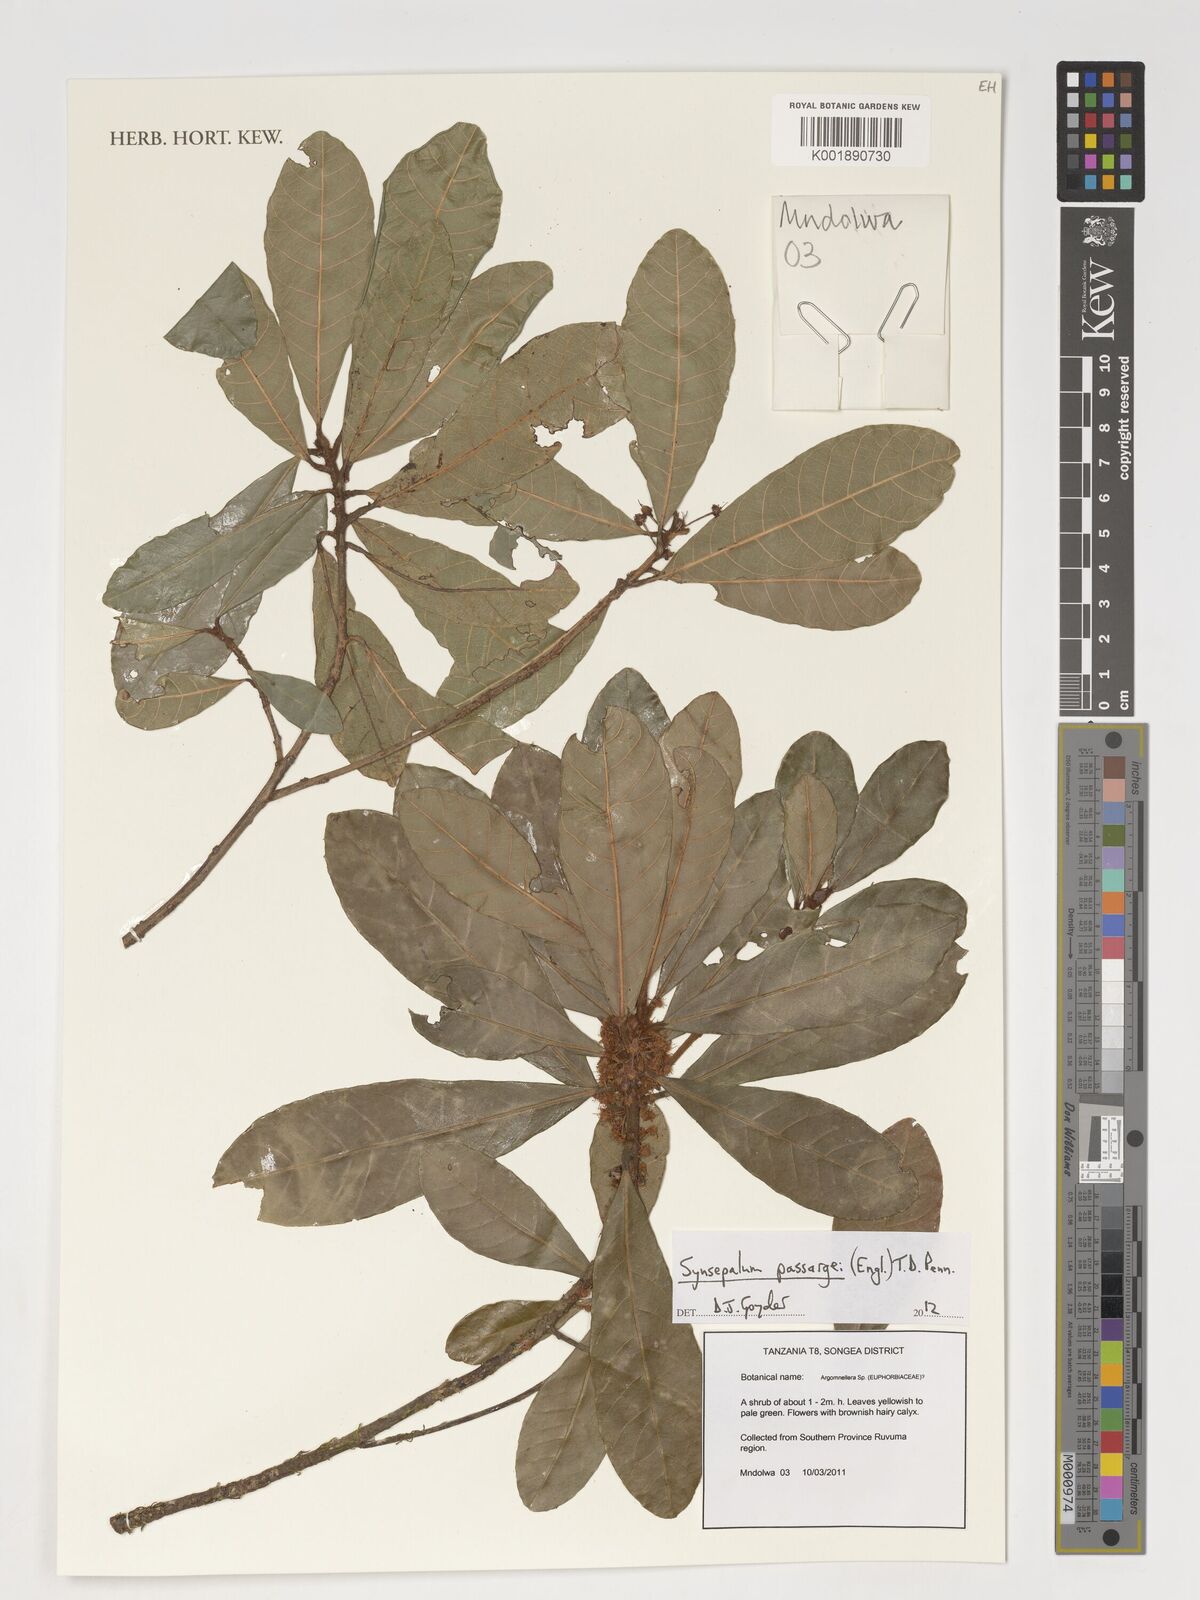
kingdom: Plantae
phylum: Tracheophyta
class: Magnoliopsida
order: Malpighiales
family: Euphorbiaceae
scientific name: Euphorbiaceae
